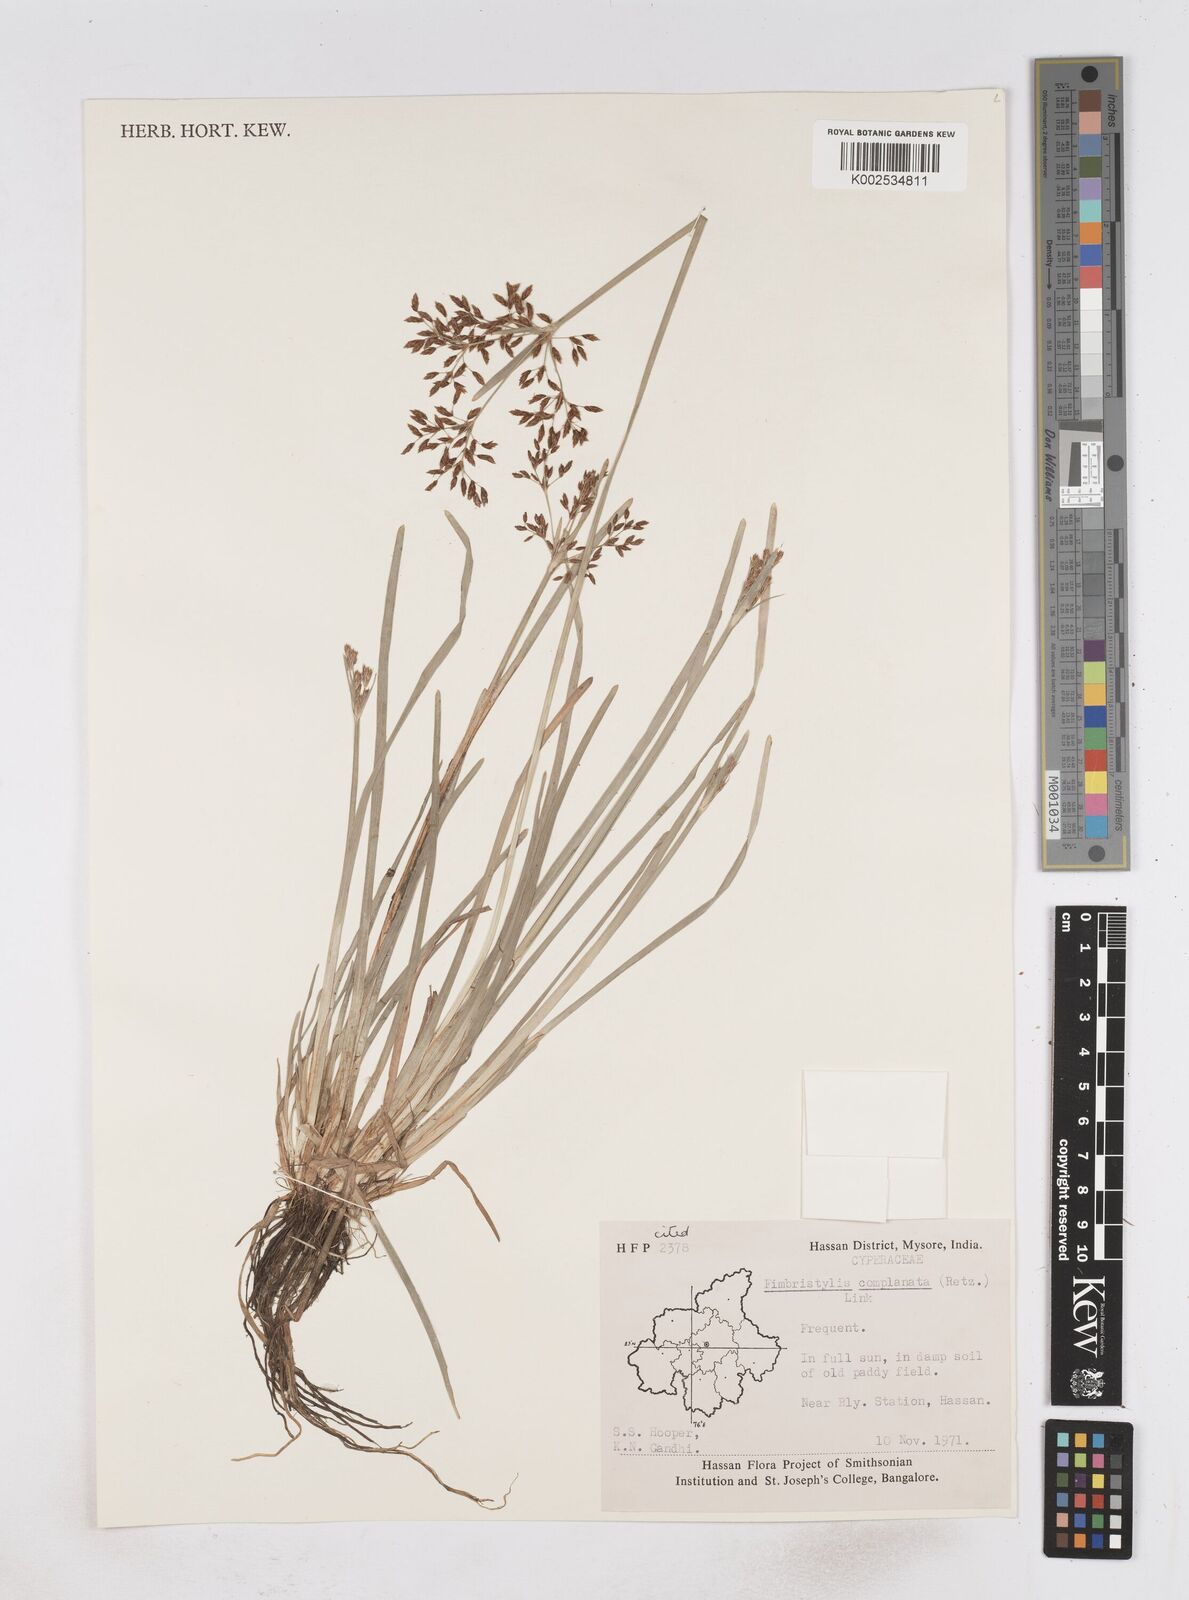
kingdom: Plantae
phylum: Tracheophyta
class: Liliopsida
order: Poales
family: Cyperaceae
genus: Fimbristylis
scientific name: Fimbristylis complanata
